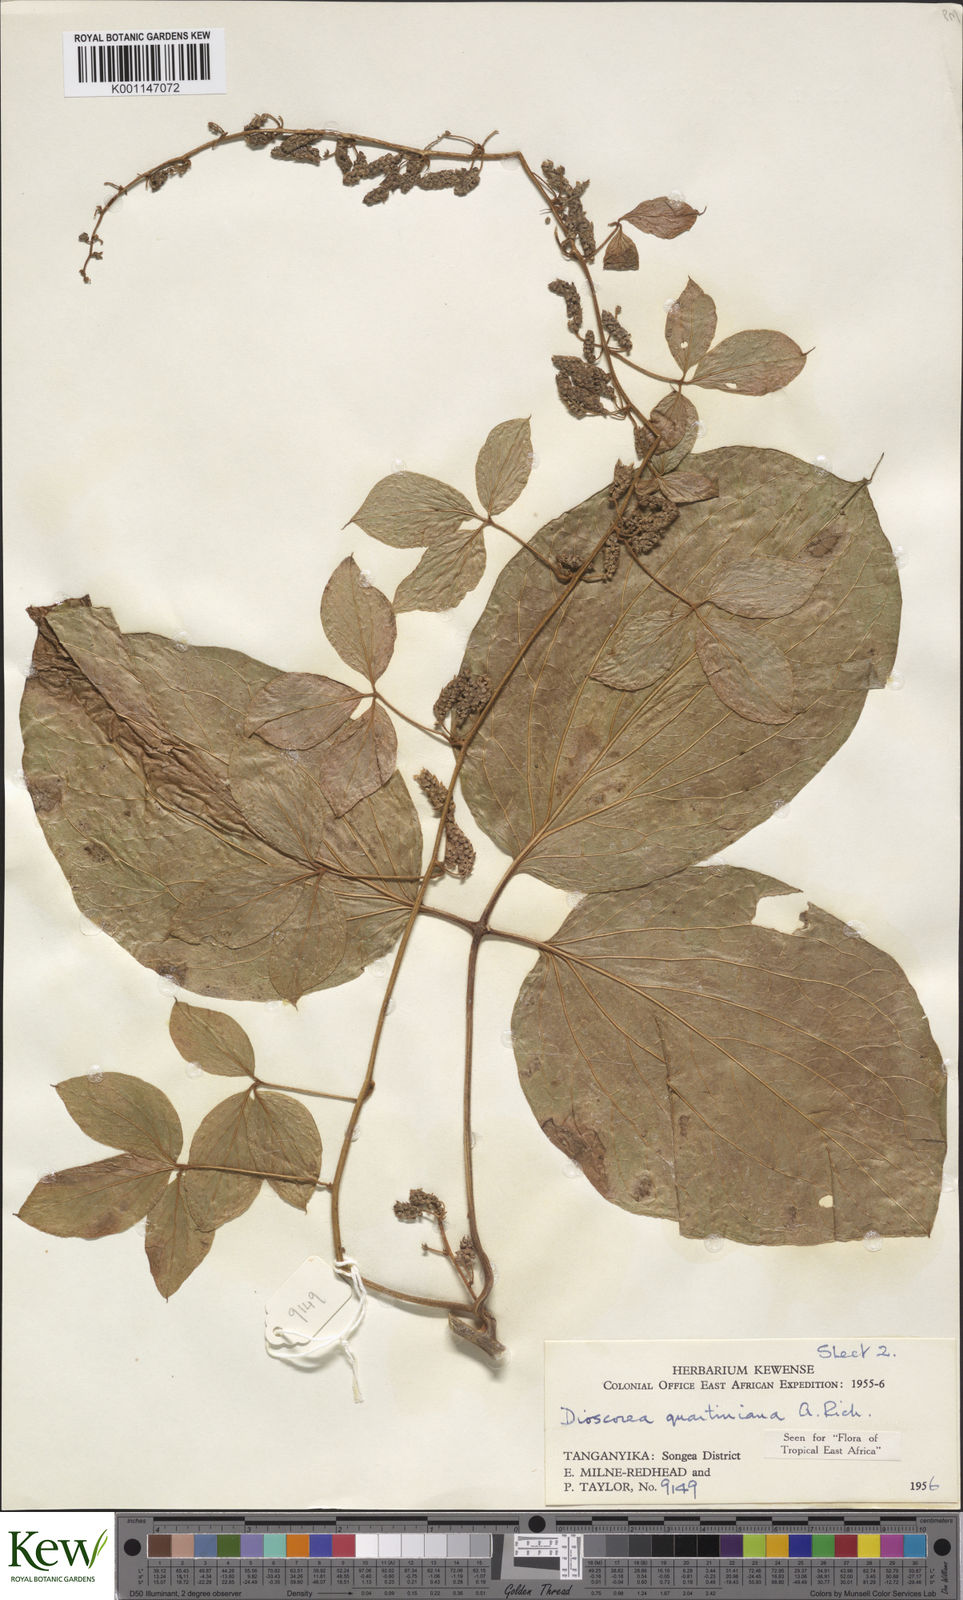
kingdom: Plantae
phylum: Tracheophyta
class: Liliopsida
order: Dioscoreales
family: Dioscoreaceae
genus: Dioscorea
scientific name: Dioscorea quartiniana
